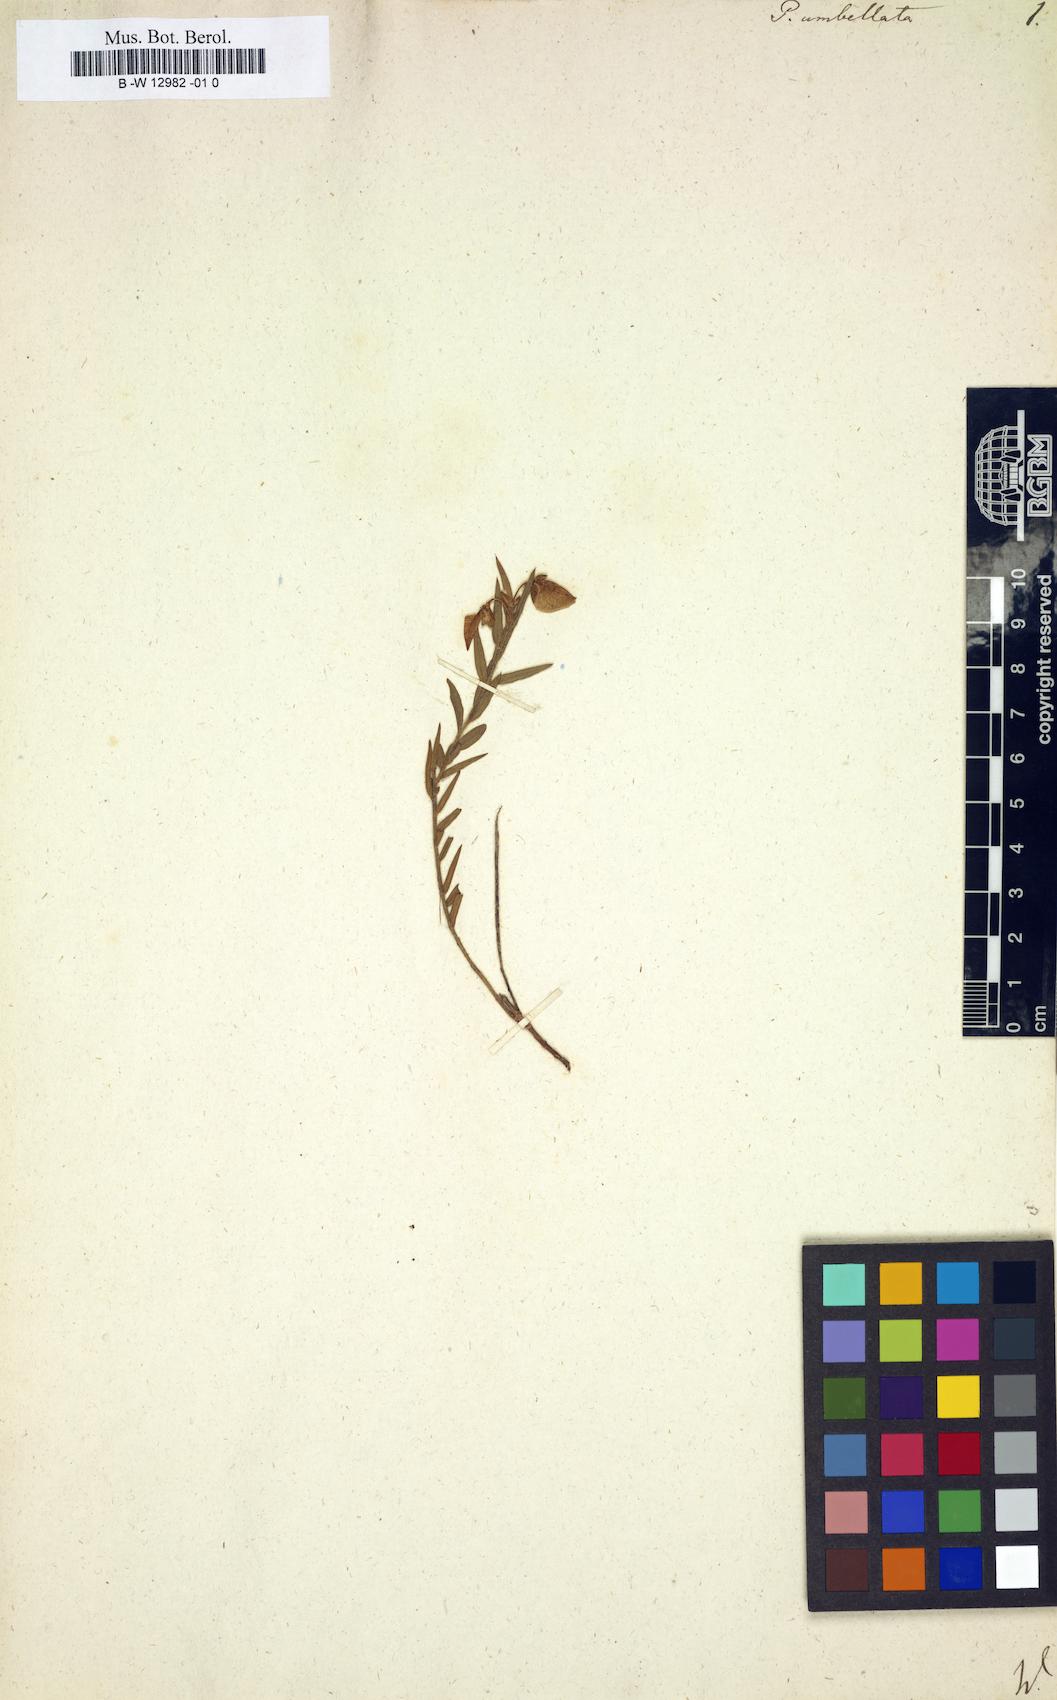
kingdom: Plantae
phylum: Tracheophyta
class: Magnoliopsida
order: Fabales
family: Polygalaceae
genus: Polygala
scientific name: Polygala umbellata
